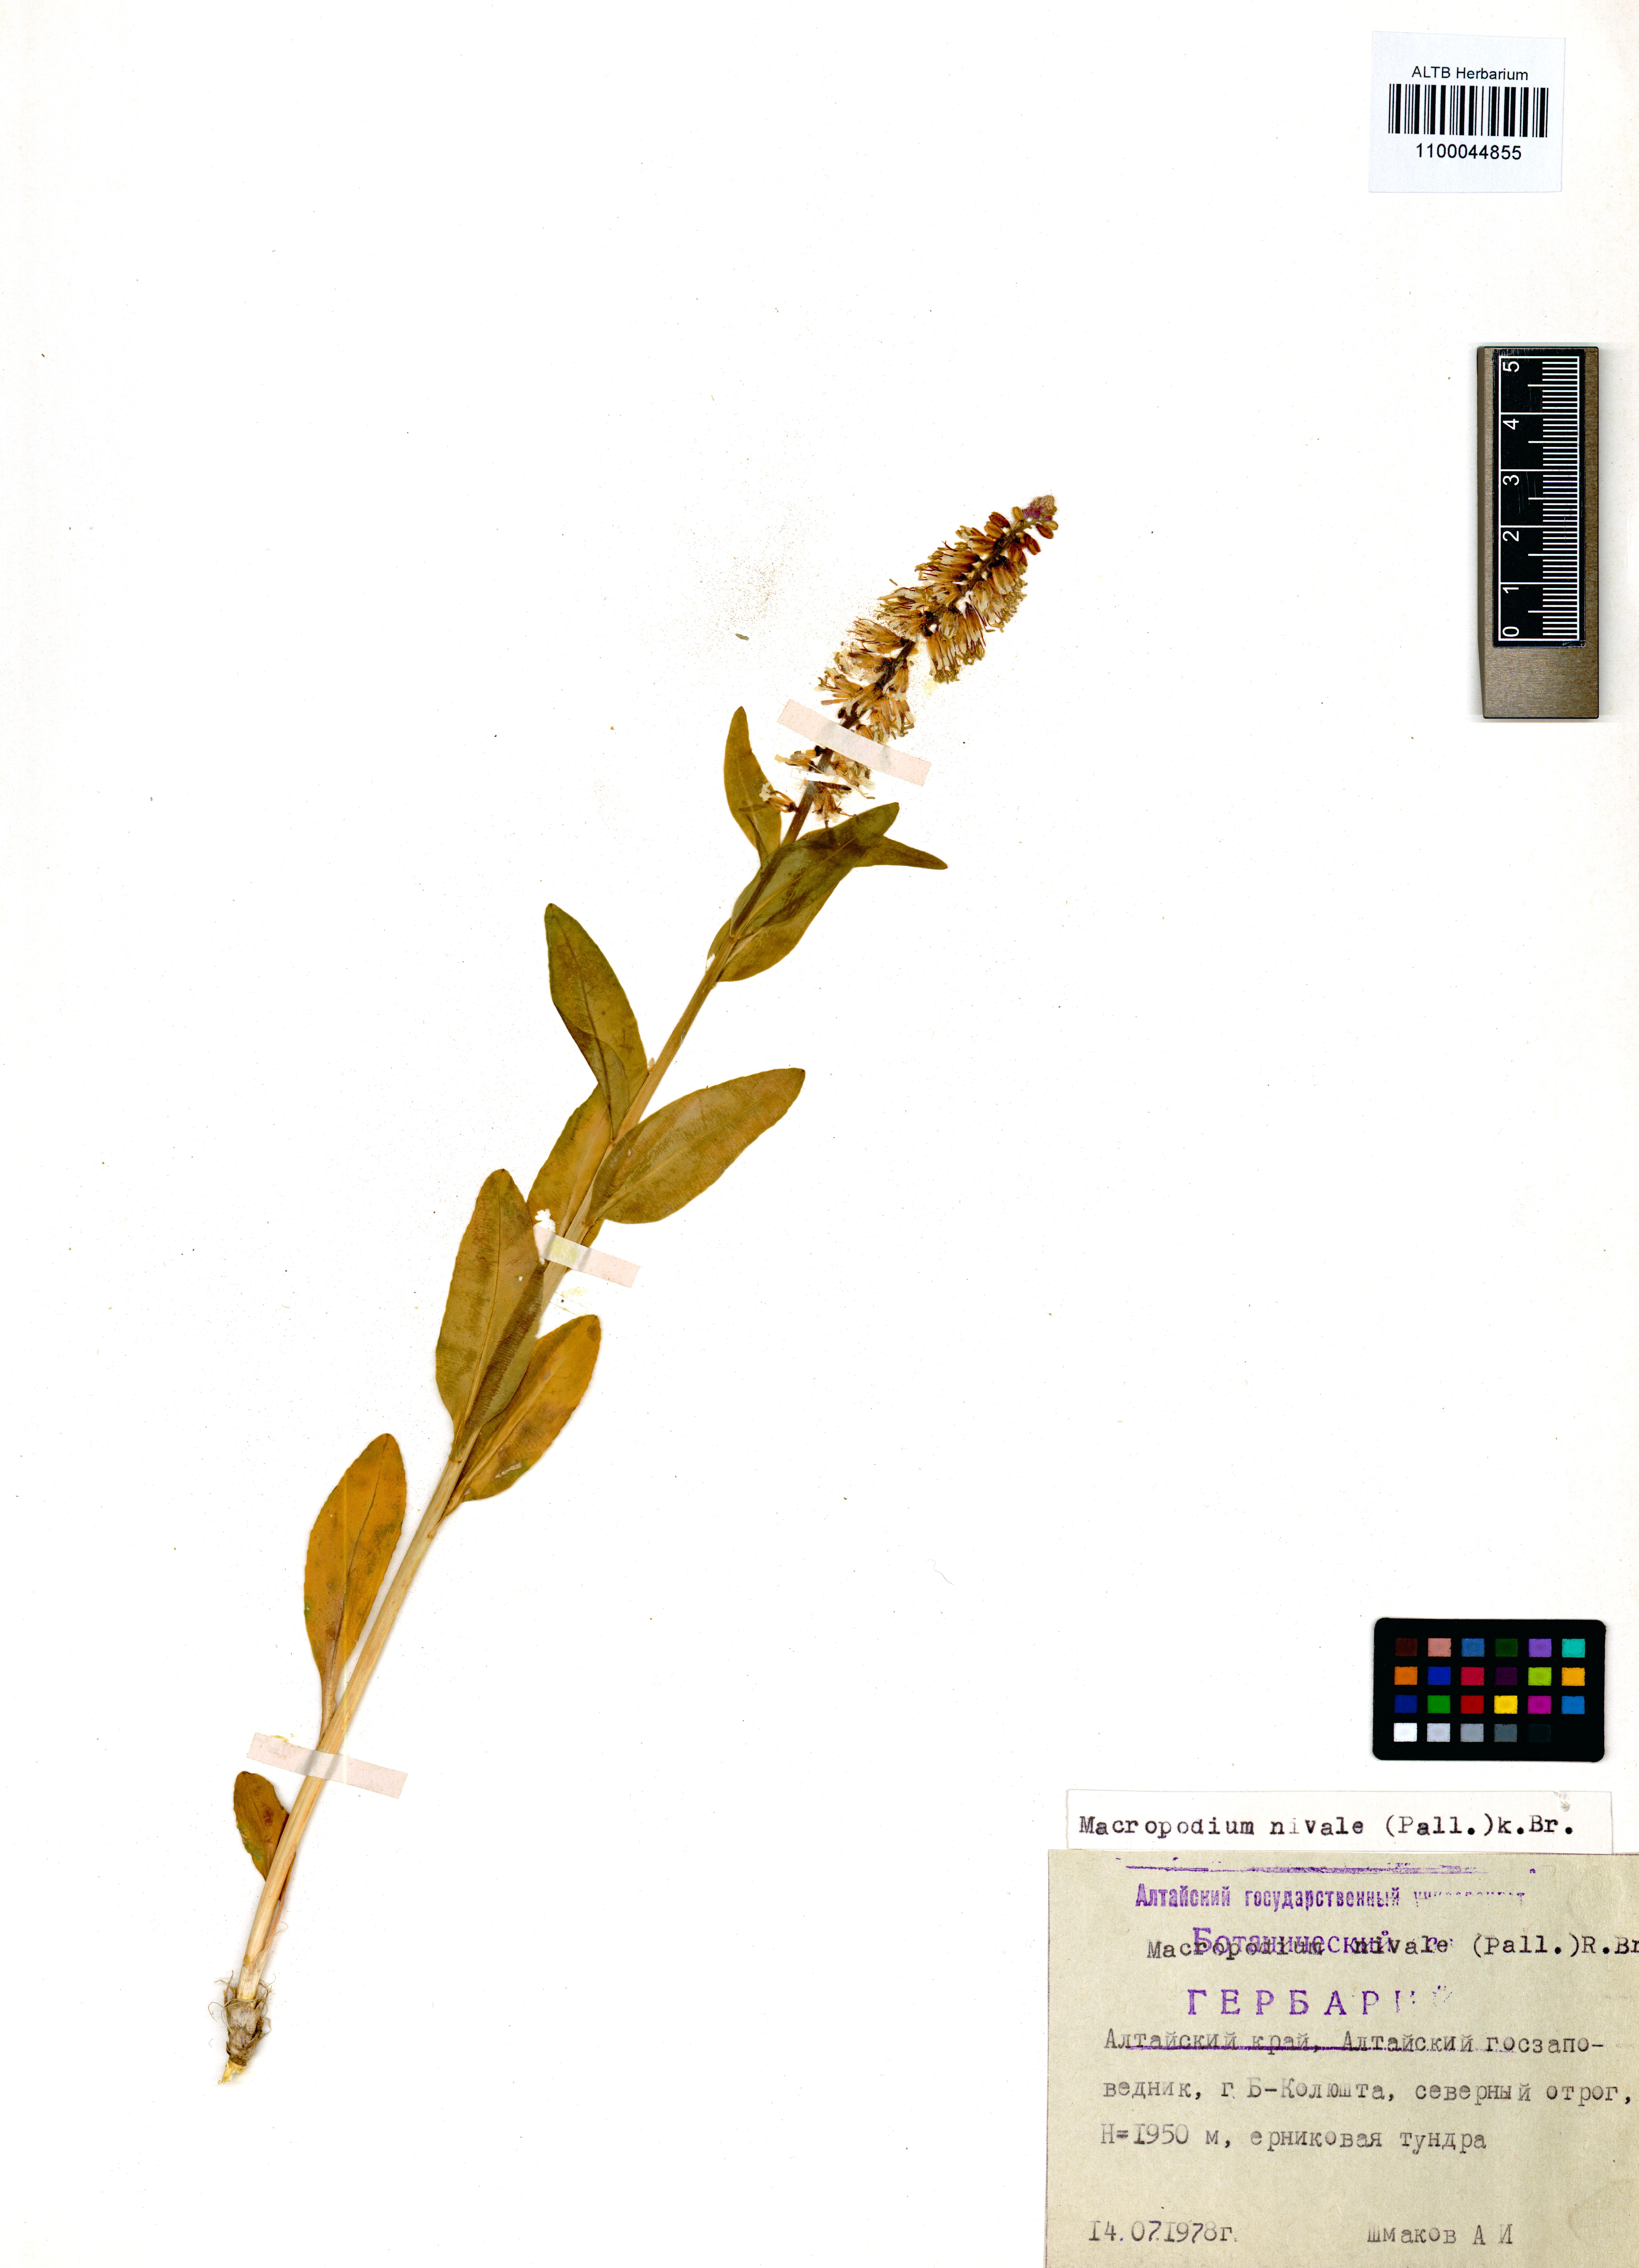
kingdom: Plantae
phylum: Tracheophyta
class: Magnoliopsida
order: Brassicales
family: Brassicaceae
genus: Macropodium
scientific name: Macropodium nivale
